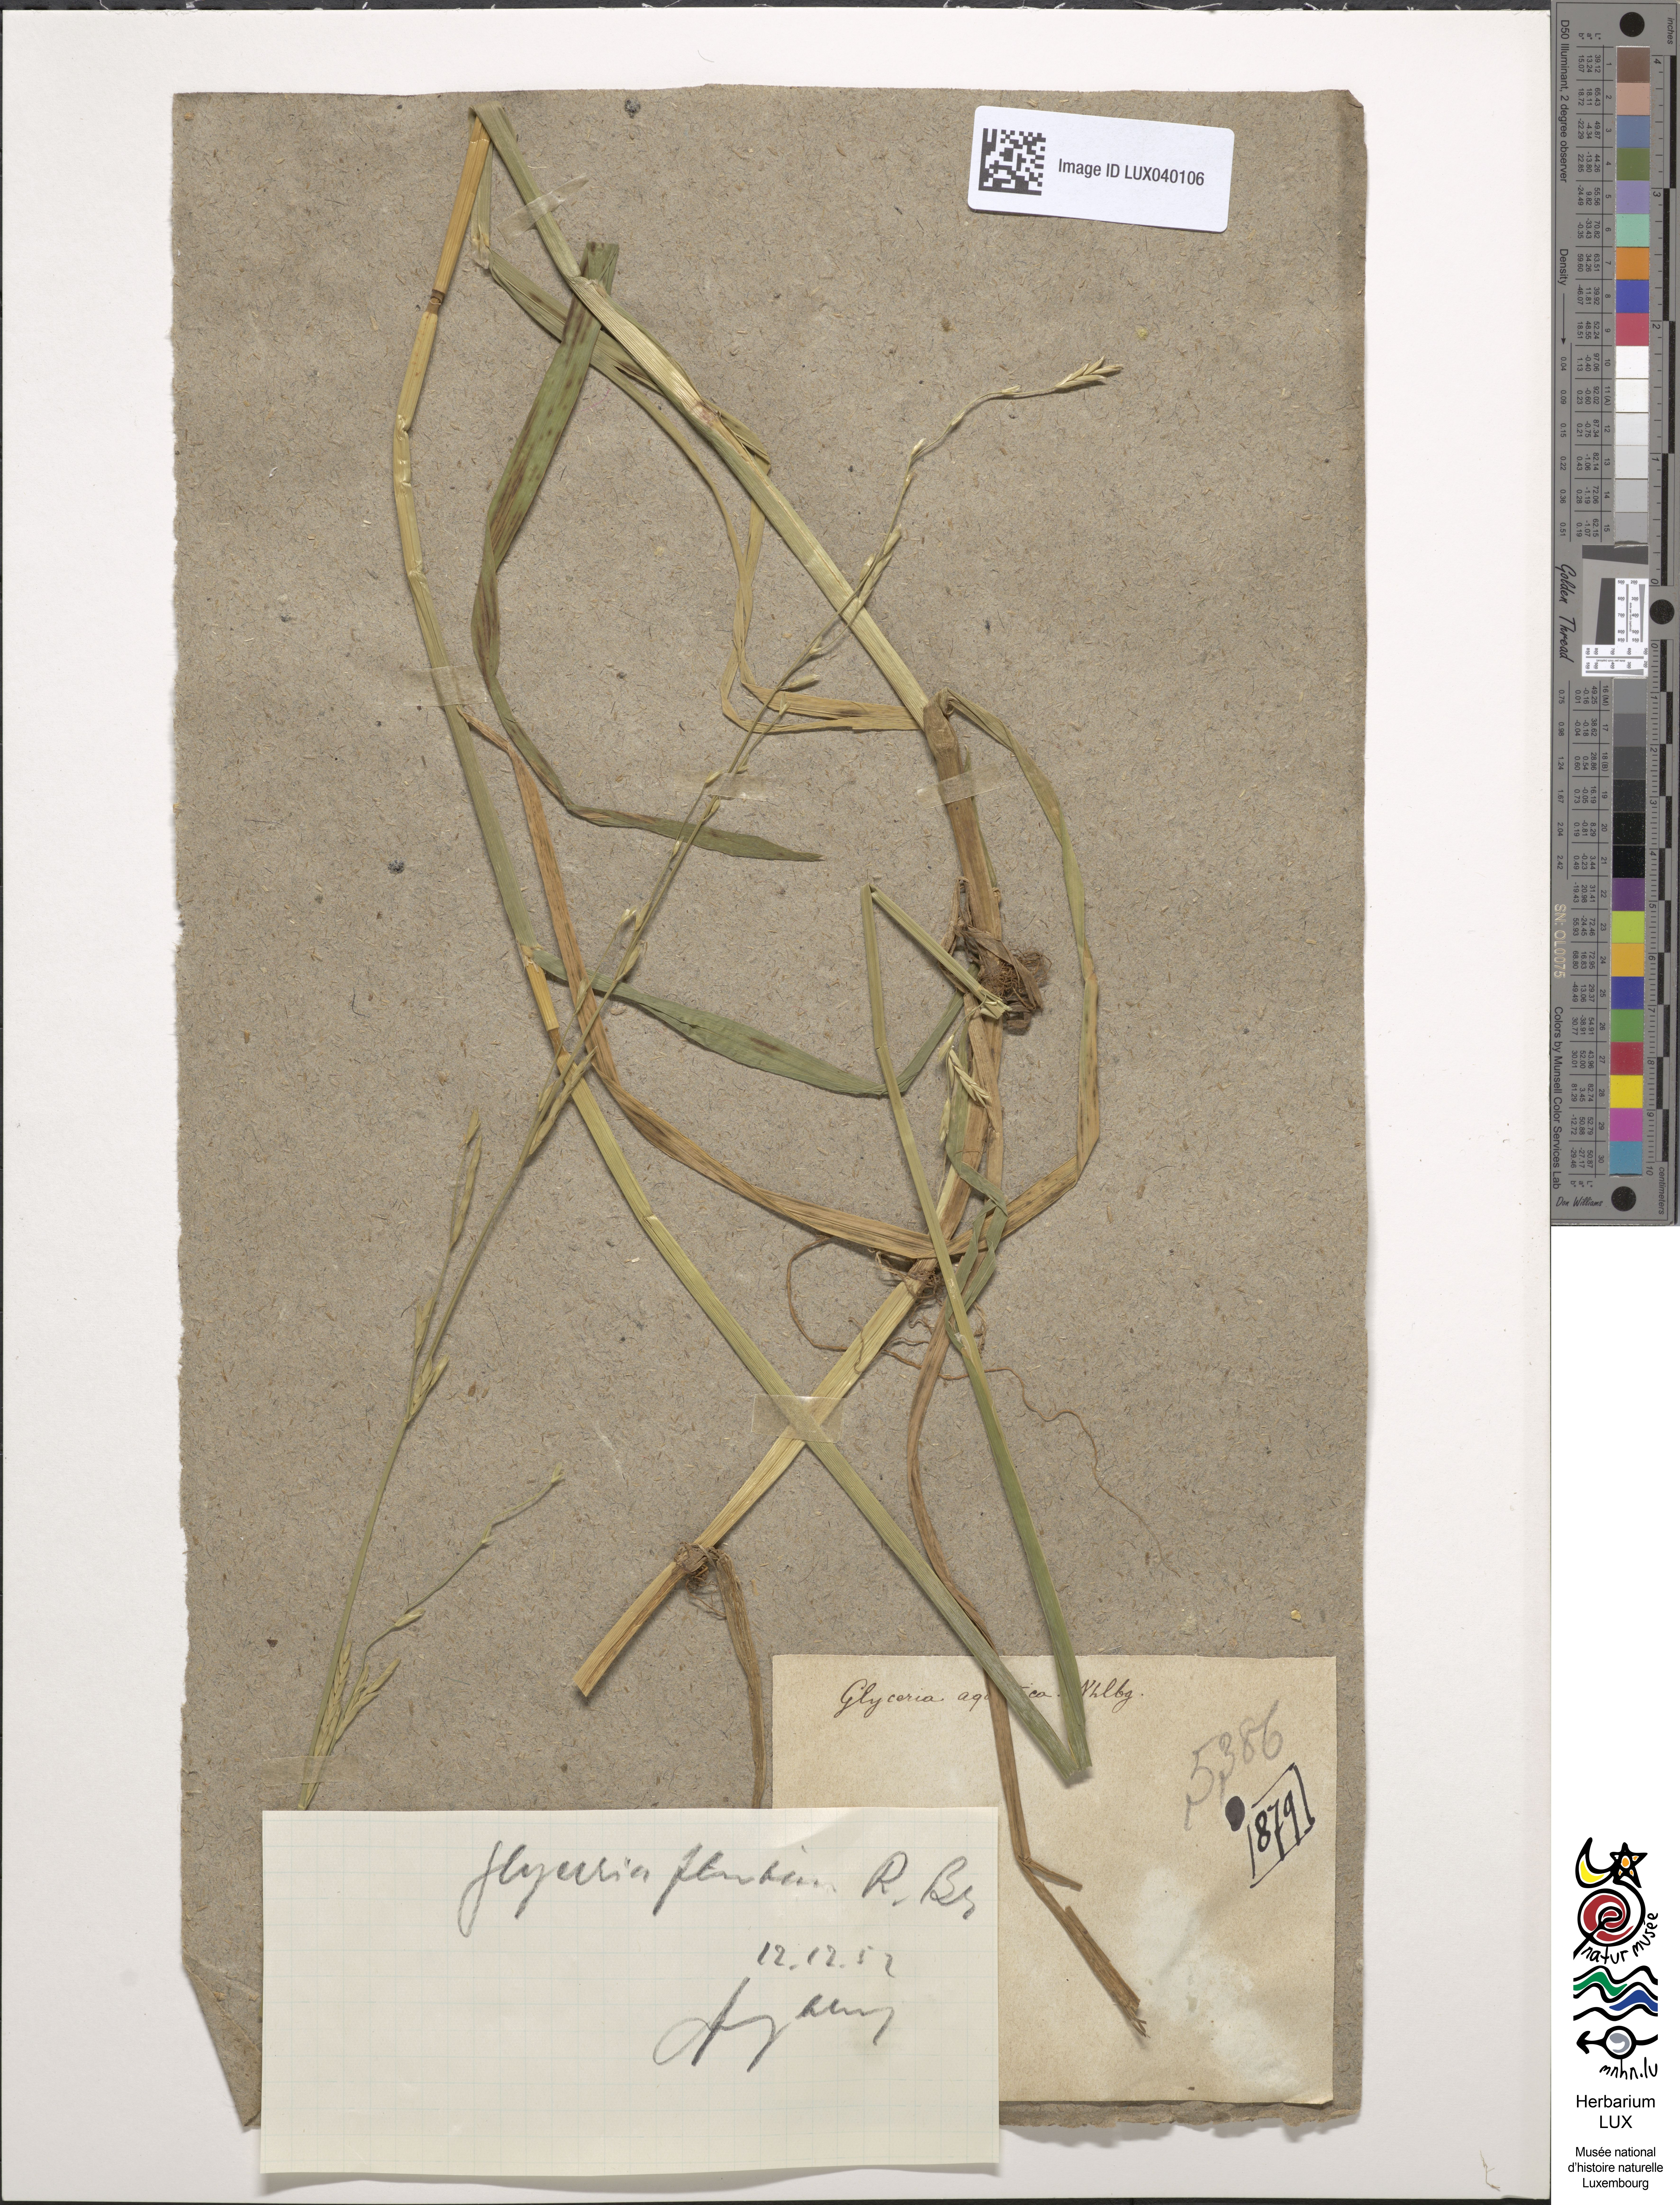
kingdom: Plantae
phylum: Tracheophyta
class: Liliopsida
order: Poales
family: Poaceae
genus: Glyceria
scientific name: Glyceria fluitans
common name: Floating sweet-grass
